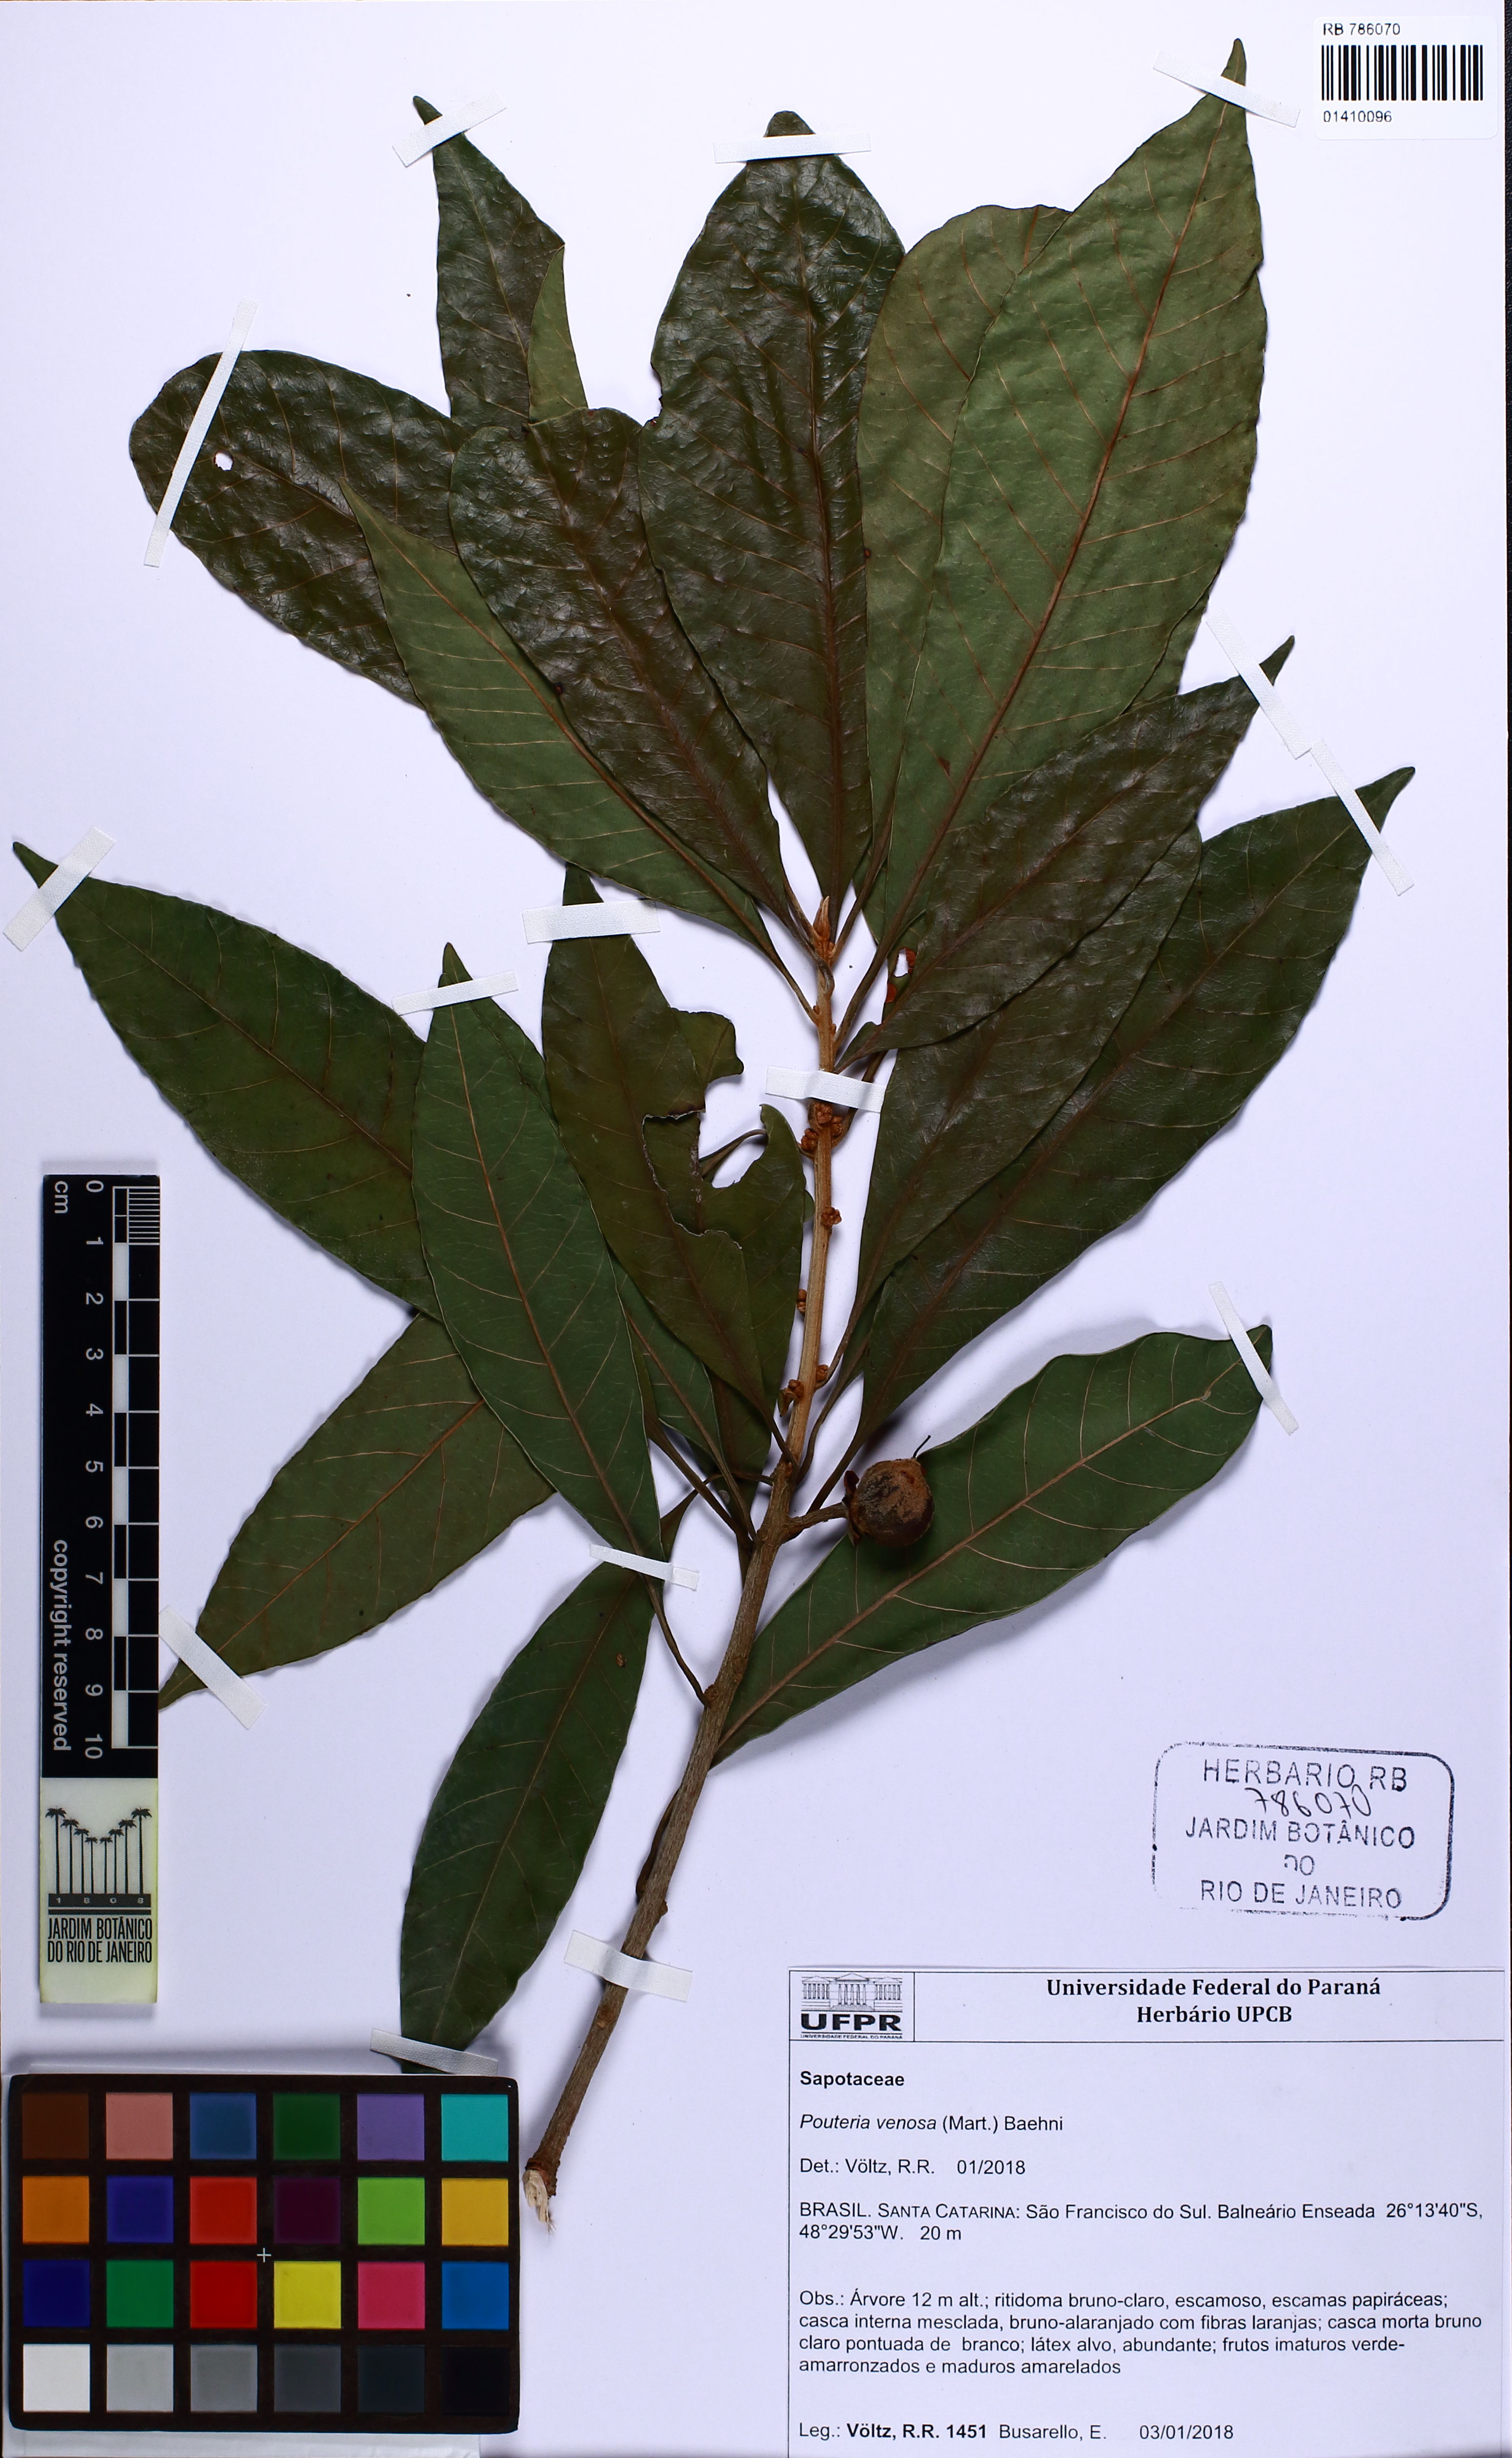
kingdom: Plantae
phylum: Tracheophyta
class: Magnoliopsida
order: Ericales
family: Sapotaceae
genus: Pouteria
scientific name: Pouteria venosa
